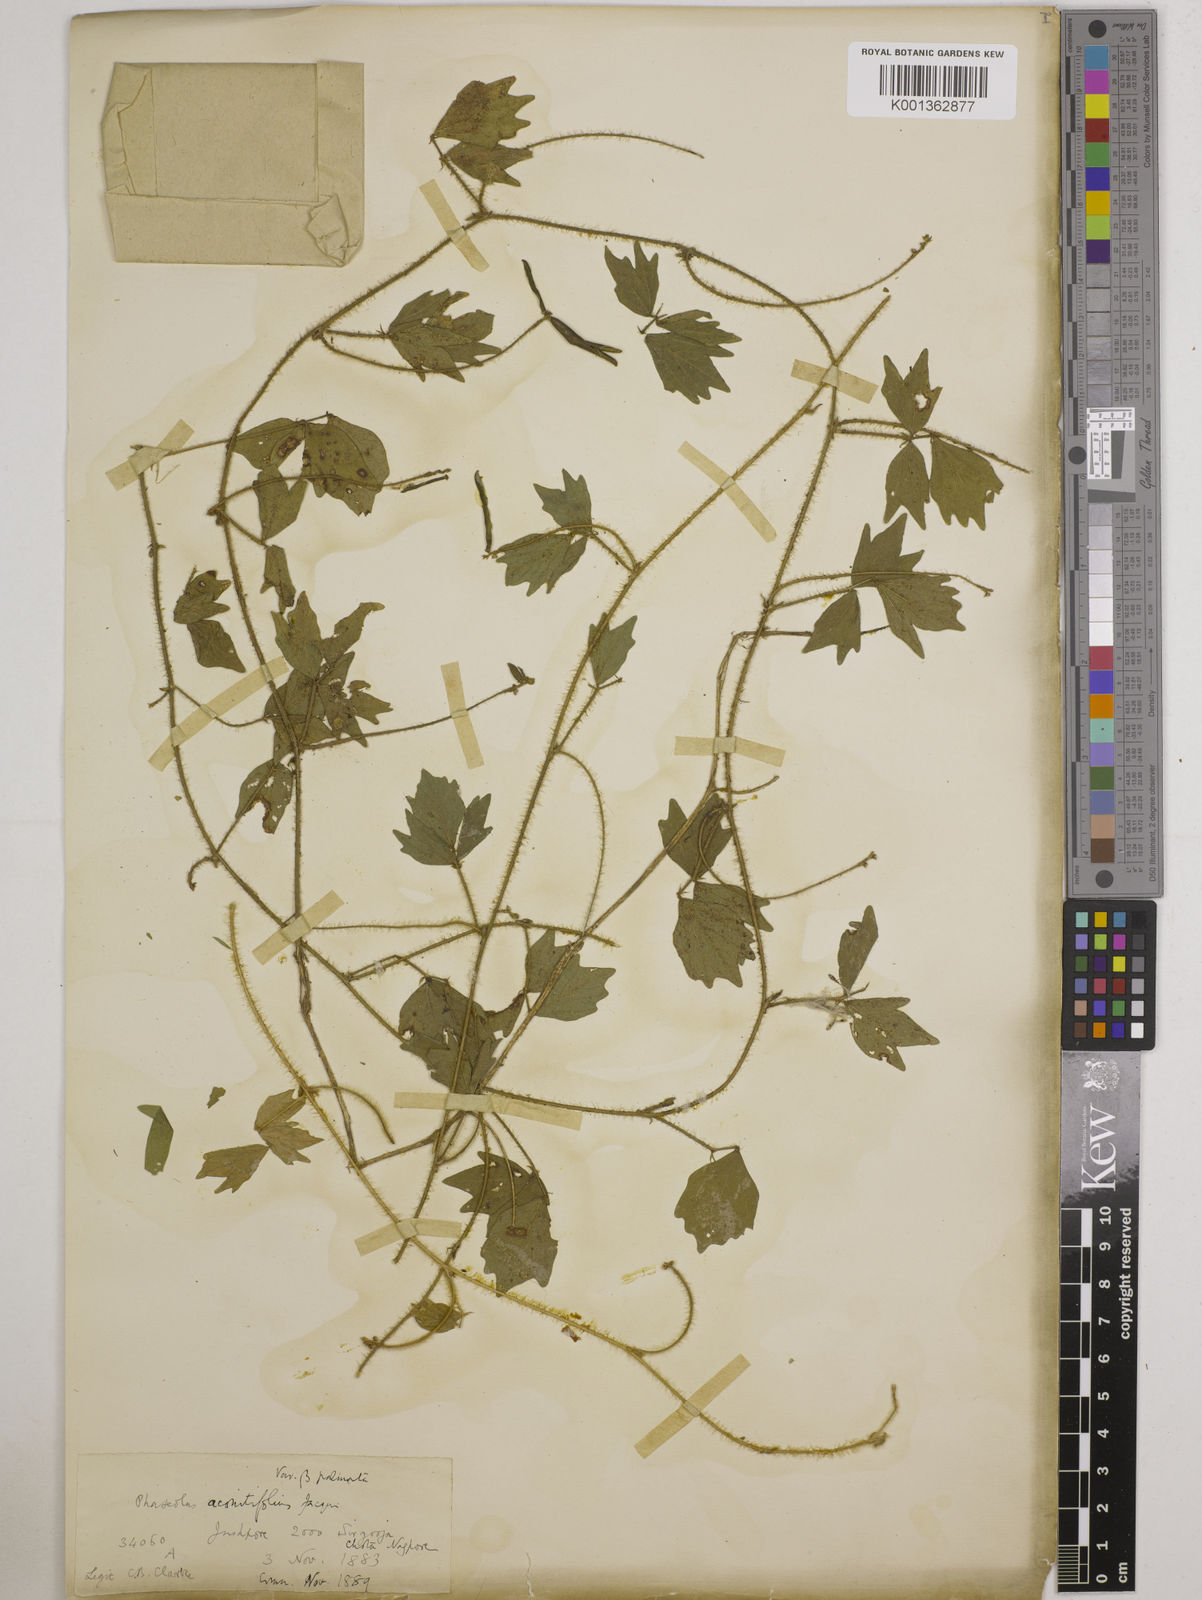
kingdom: Plantae
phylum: Tracheophyta
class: Magnoliopsida
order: Fabales
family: Fabaceae
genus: Vigna
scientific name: Vigna aconitifolia
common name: Dew bean
